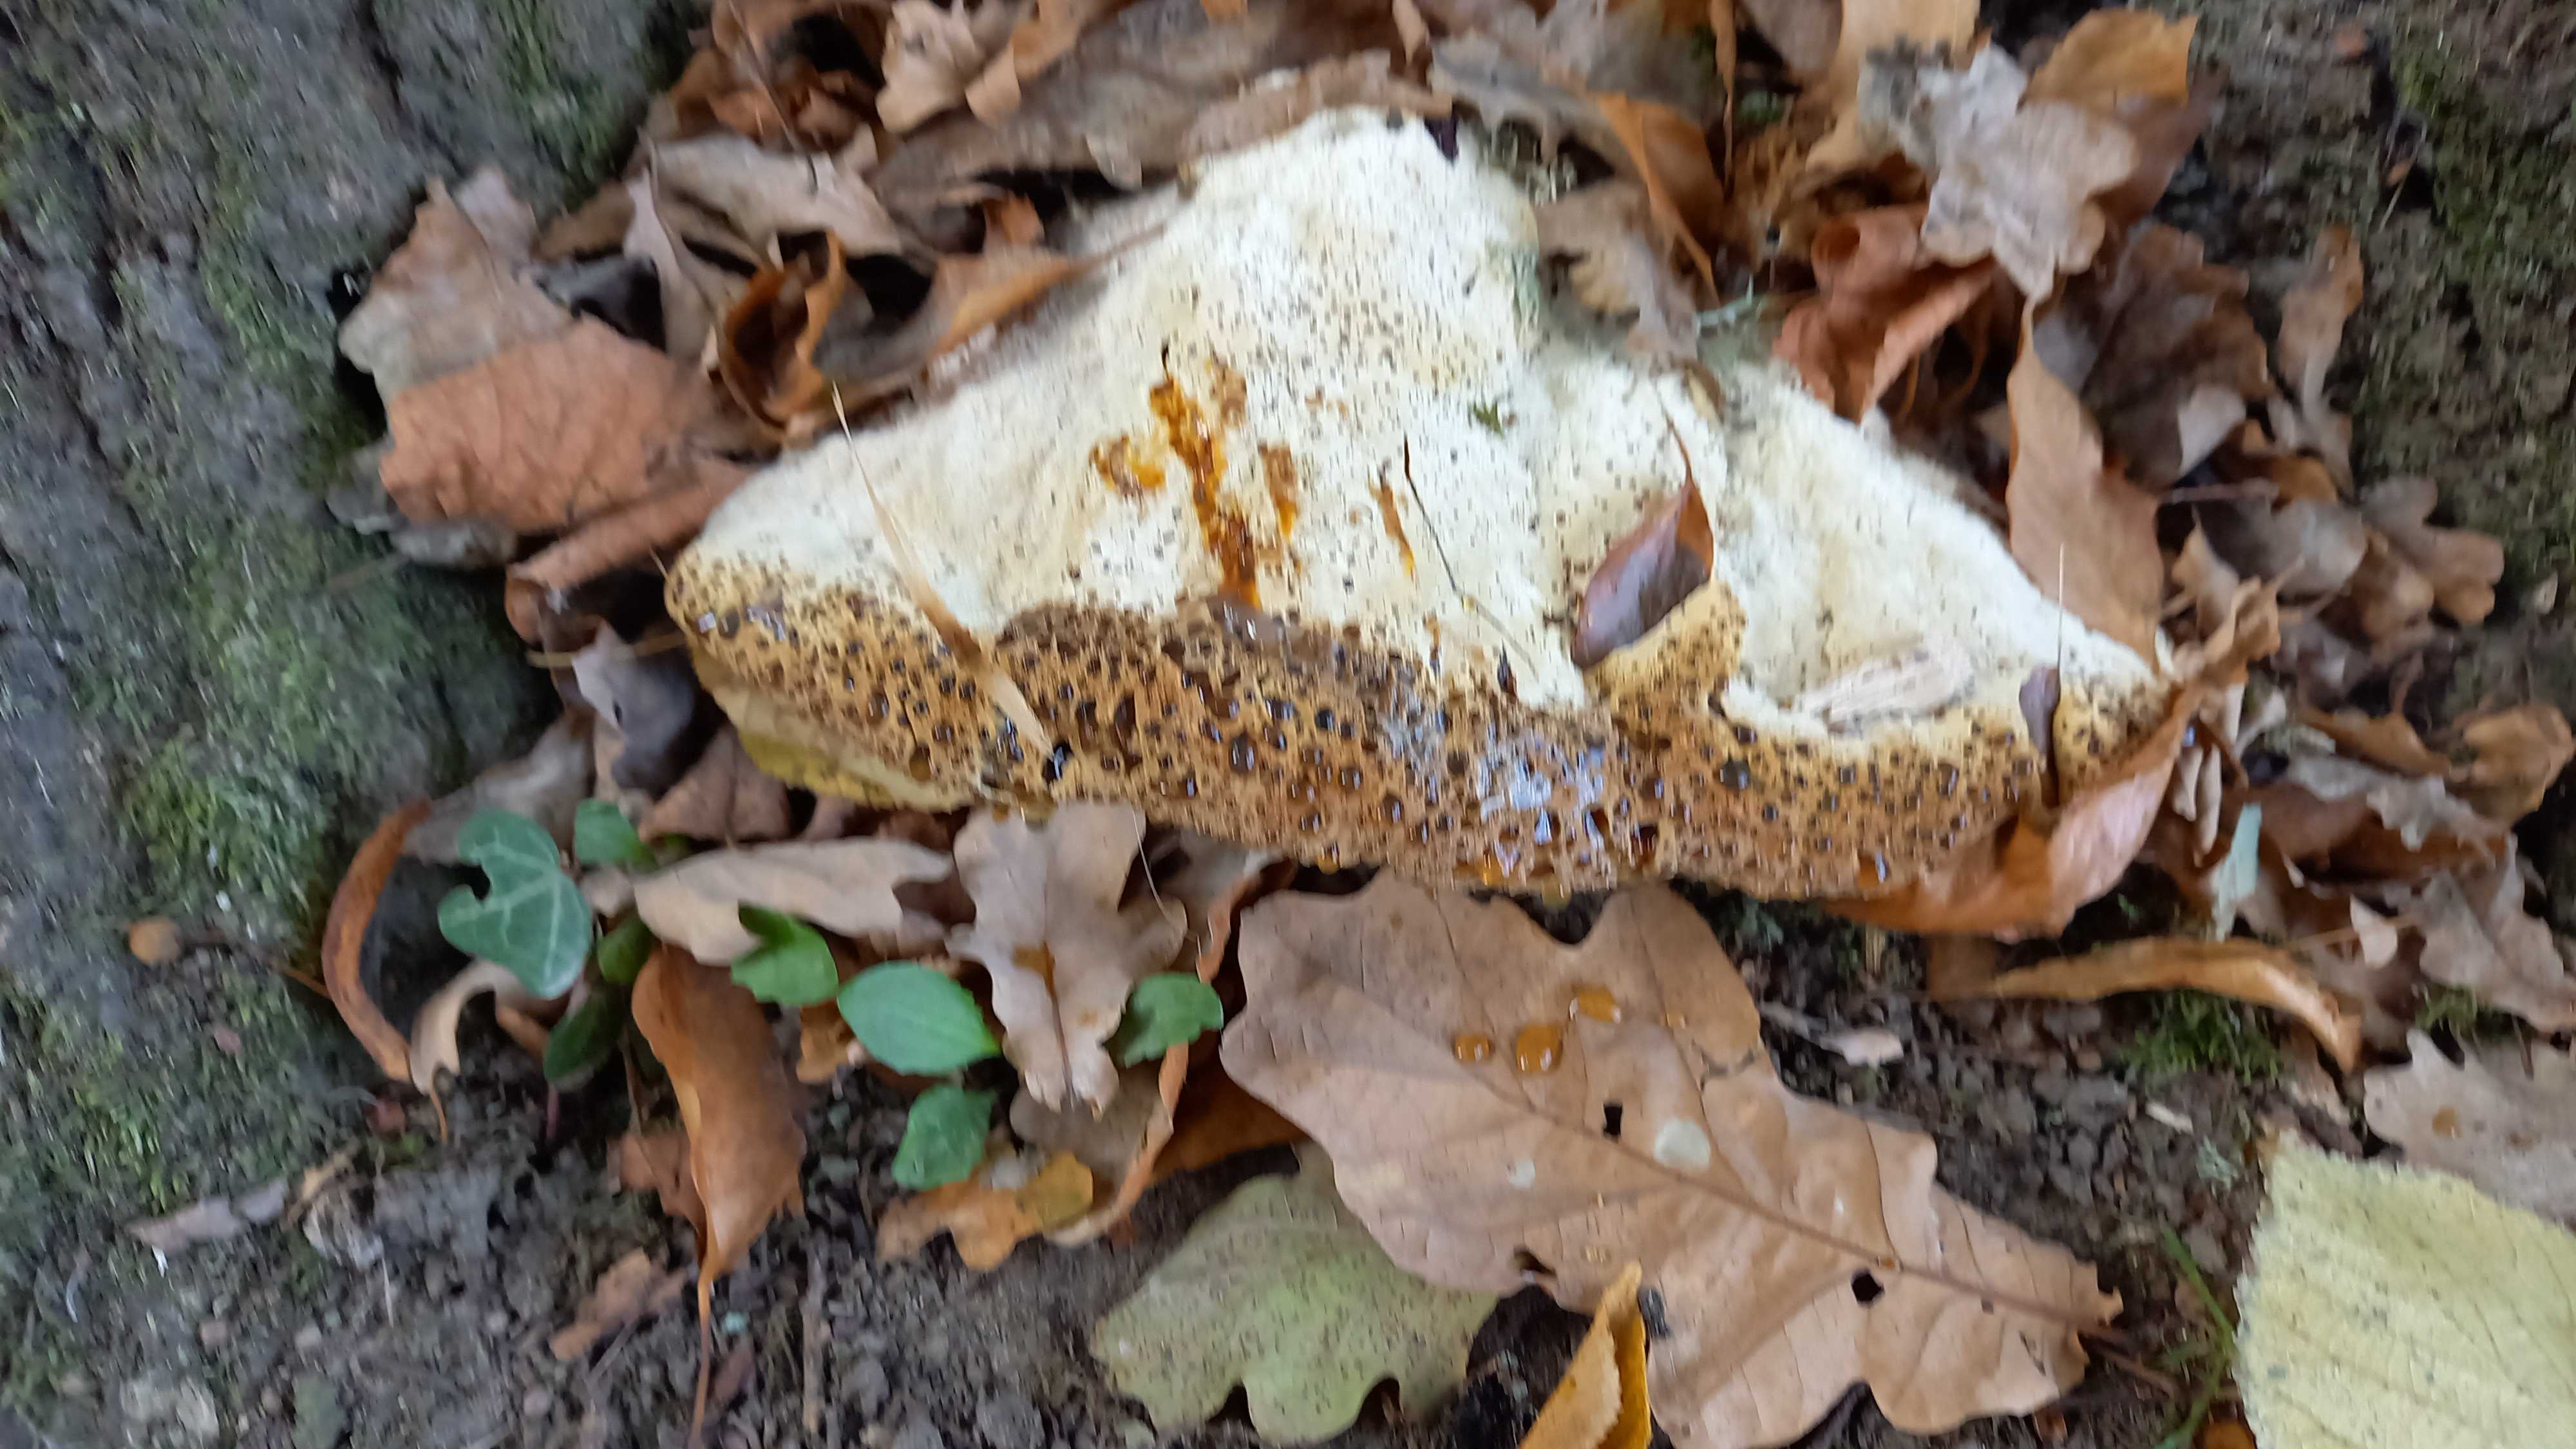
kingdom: Fungi
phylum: Basidiomycota
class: Agaricomycetes
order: Hymenochaetales
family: Hymenochaetaceae
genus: Pseudoinonotus
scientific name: Pseudoinonotus dryadeus
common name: ege-spejlporesvamp
